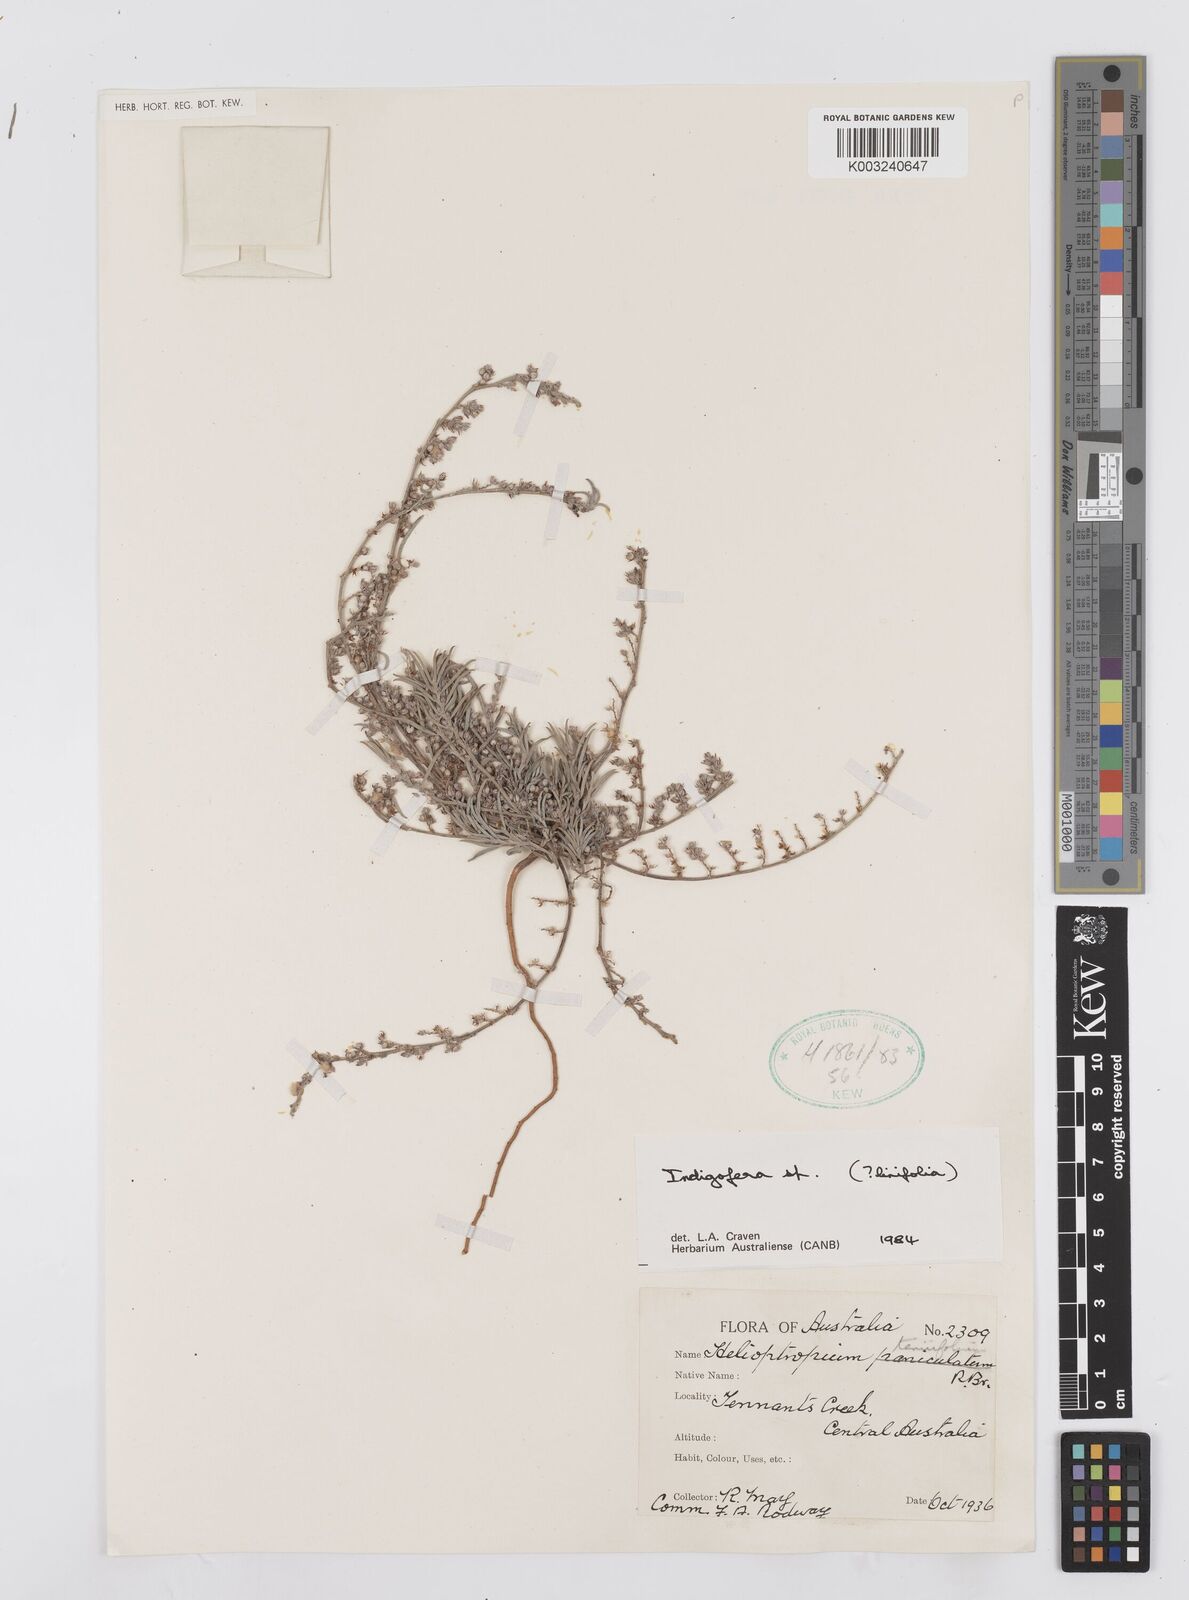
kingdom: Plantae
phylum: Tracheophyta
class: Magnoliopsida
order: Fabales
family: Fabaceae
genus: Indigofera
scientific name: Indigofera linifolia
